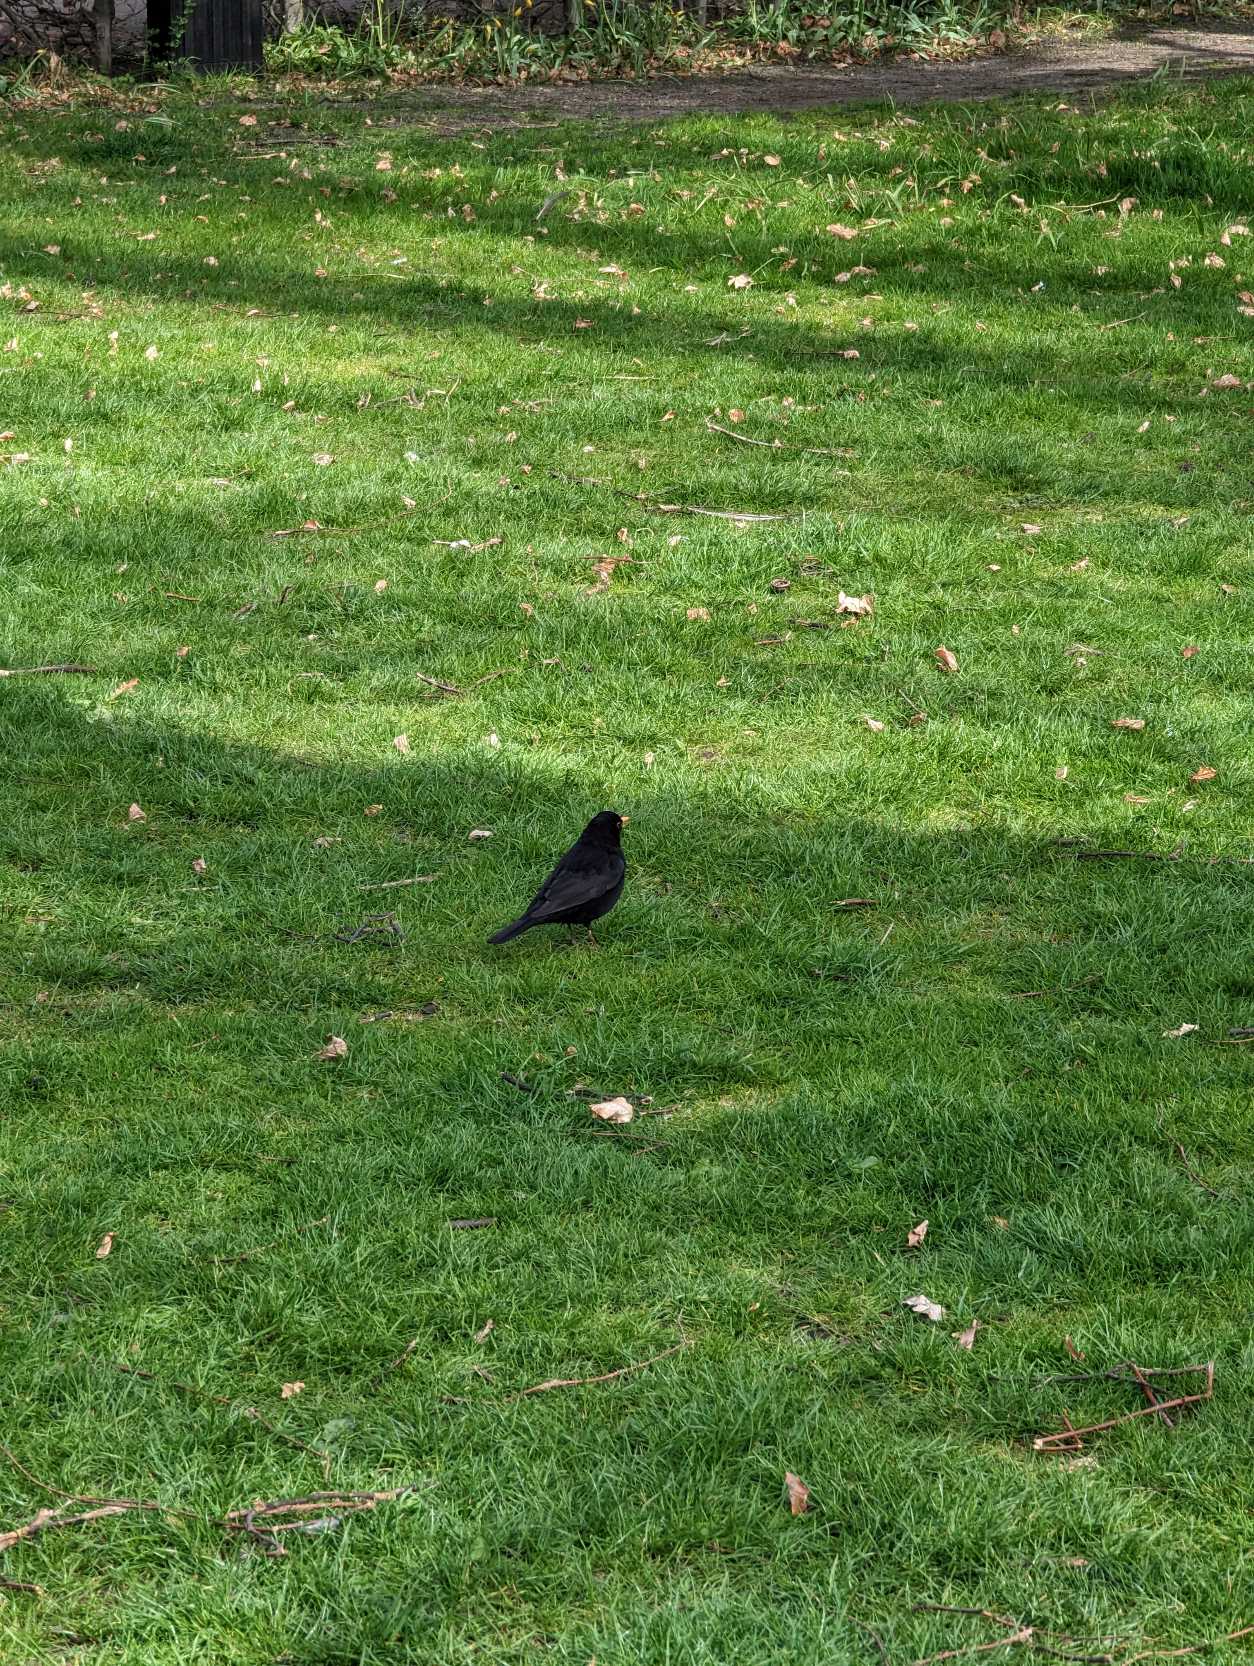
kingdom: Animalia
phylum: Chordata
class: Aves
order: Passeriformes
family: Turdidae
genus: Turdus
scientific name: Turdus merula
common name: Solsort
